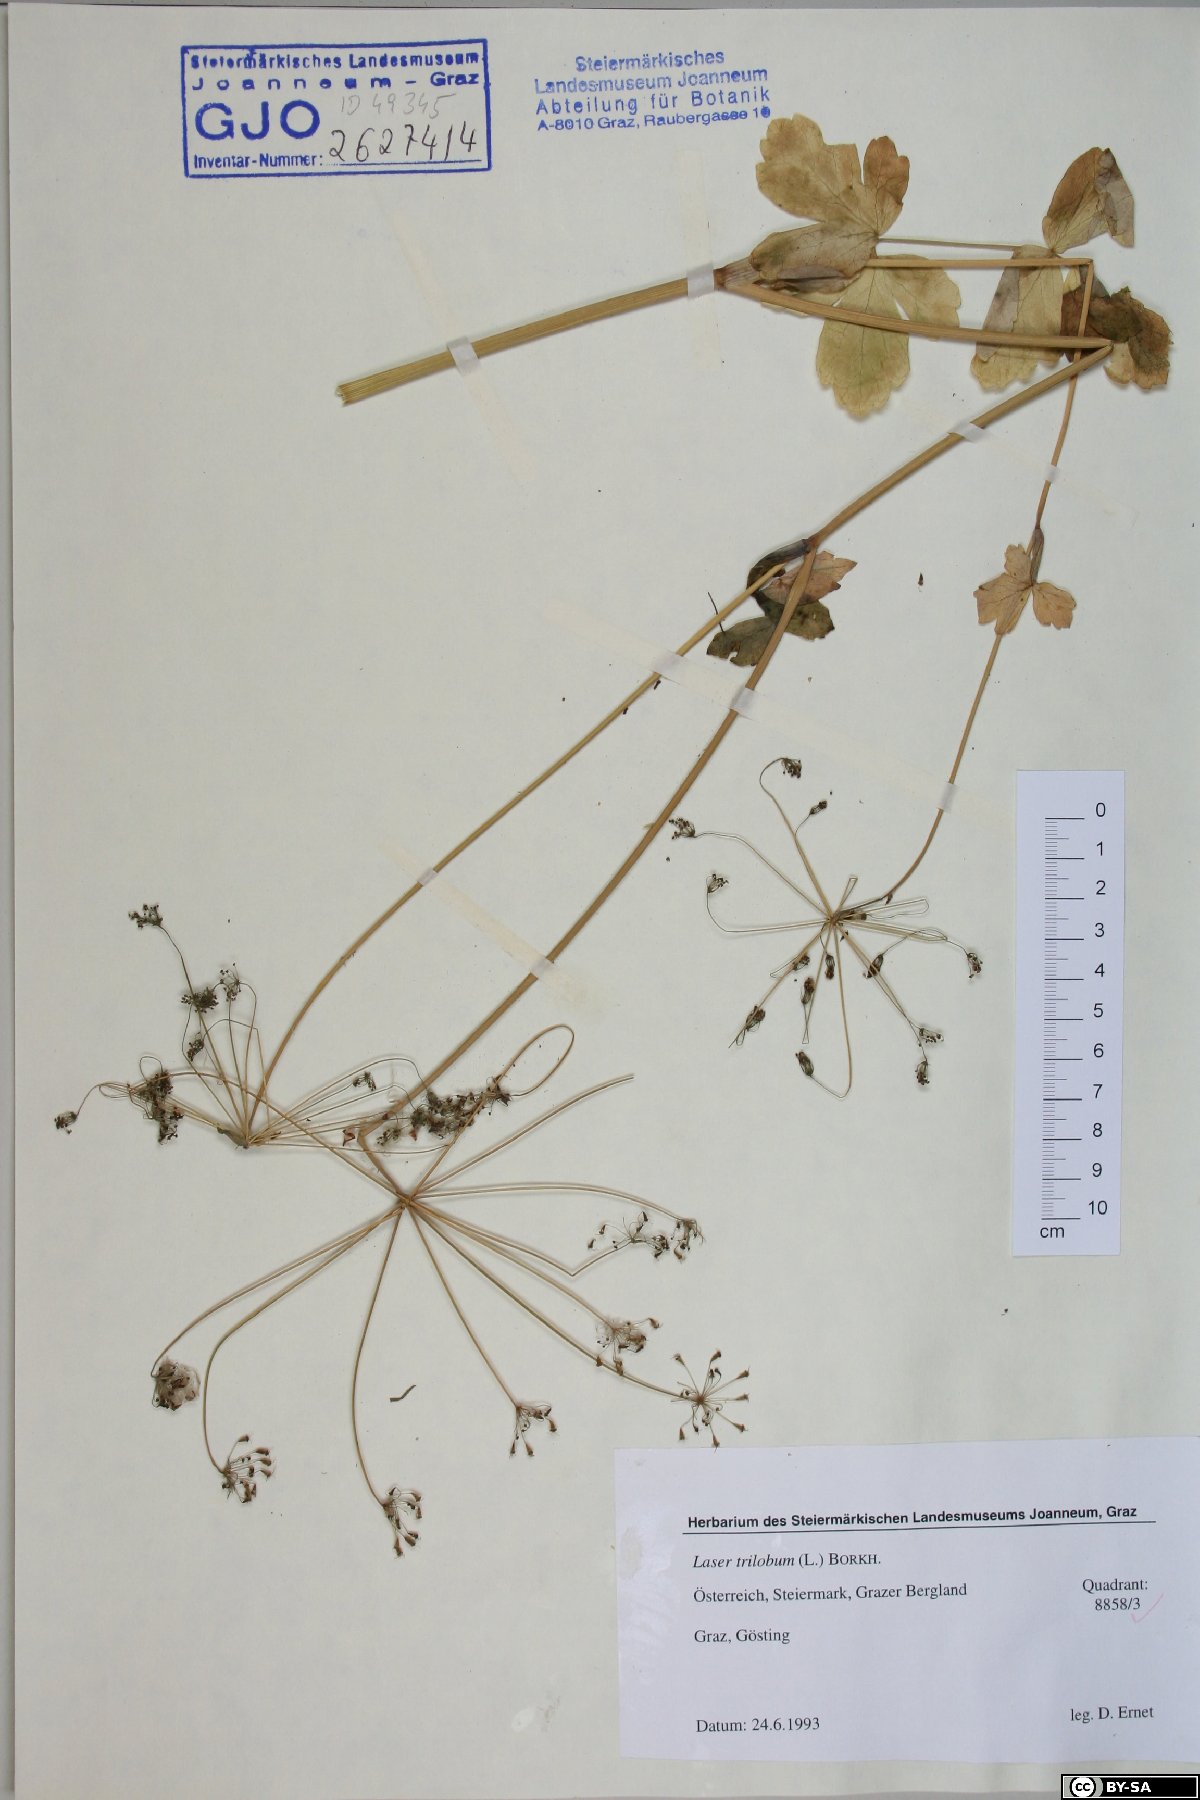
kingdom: Plantae
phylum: Tracheophyta
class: Magnoliopsida
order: Apiales
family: Apiaceae
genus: Laser
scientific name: Laser trilobum
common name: Laser
